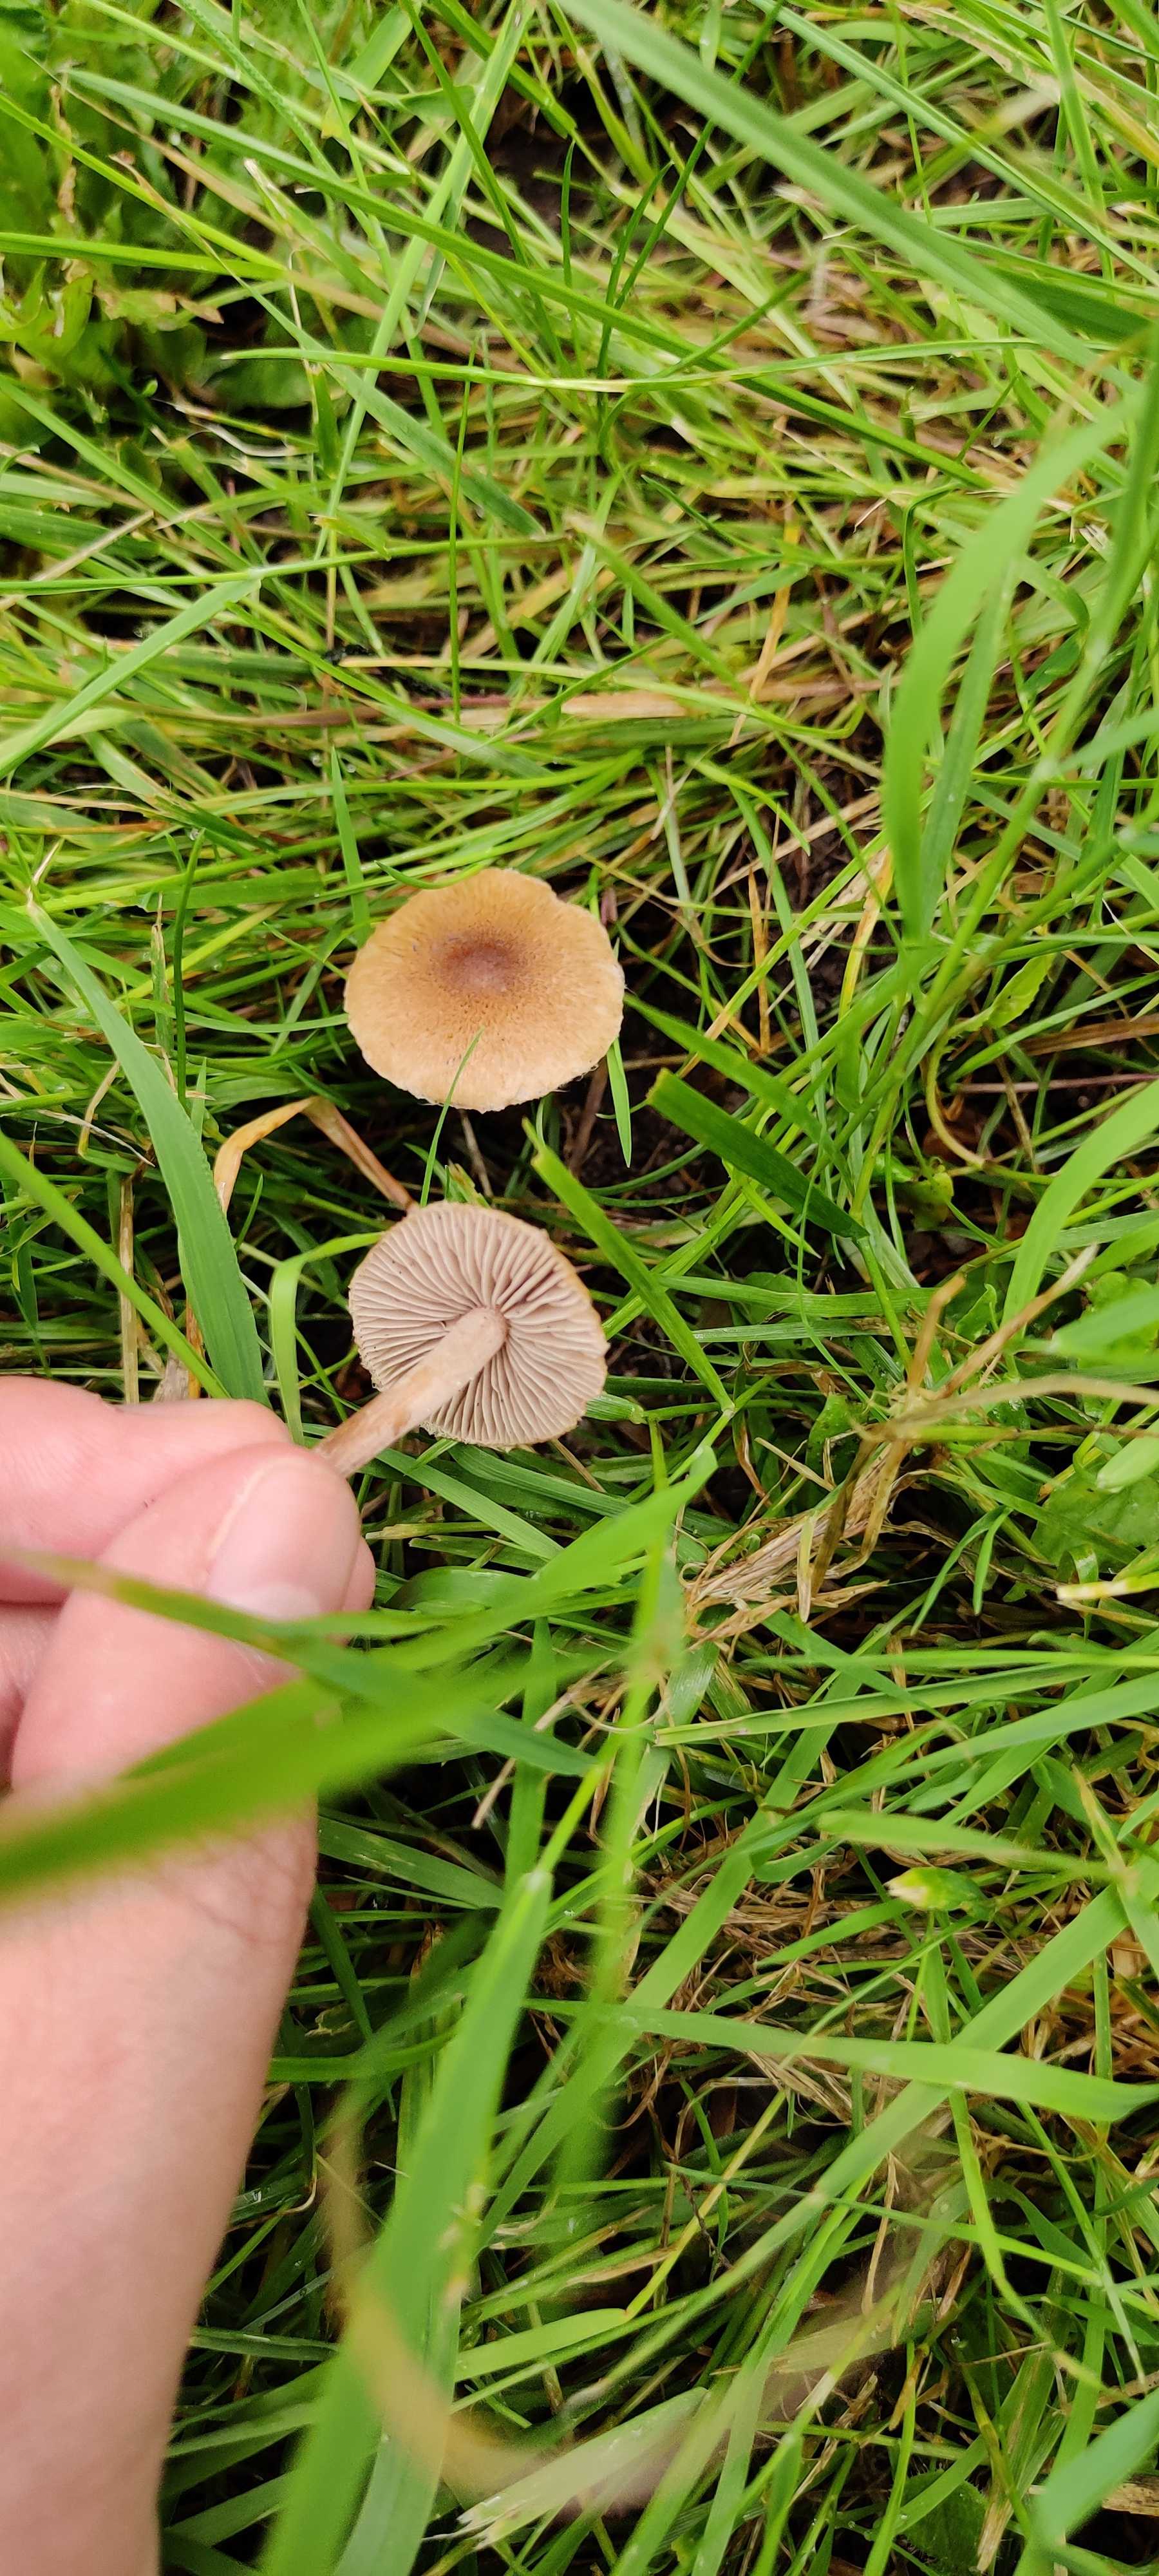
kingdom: Fungi
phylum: Basidiomycota
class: Agaricomycetes
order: Agaricales
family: Inocybaceae
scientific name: Inocybaceae
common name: trævlhatfamilien
